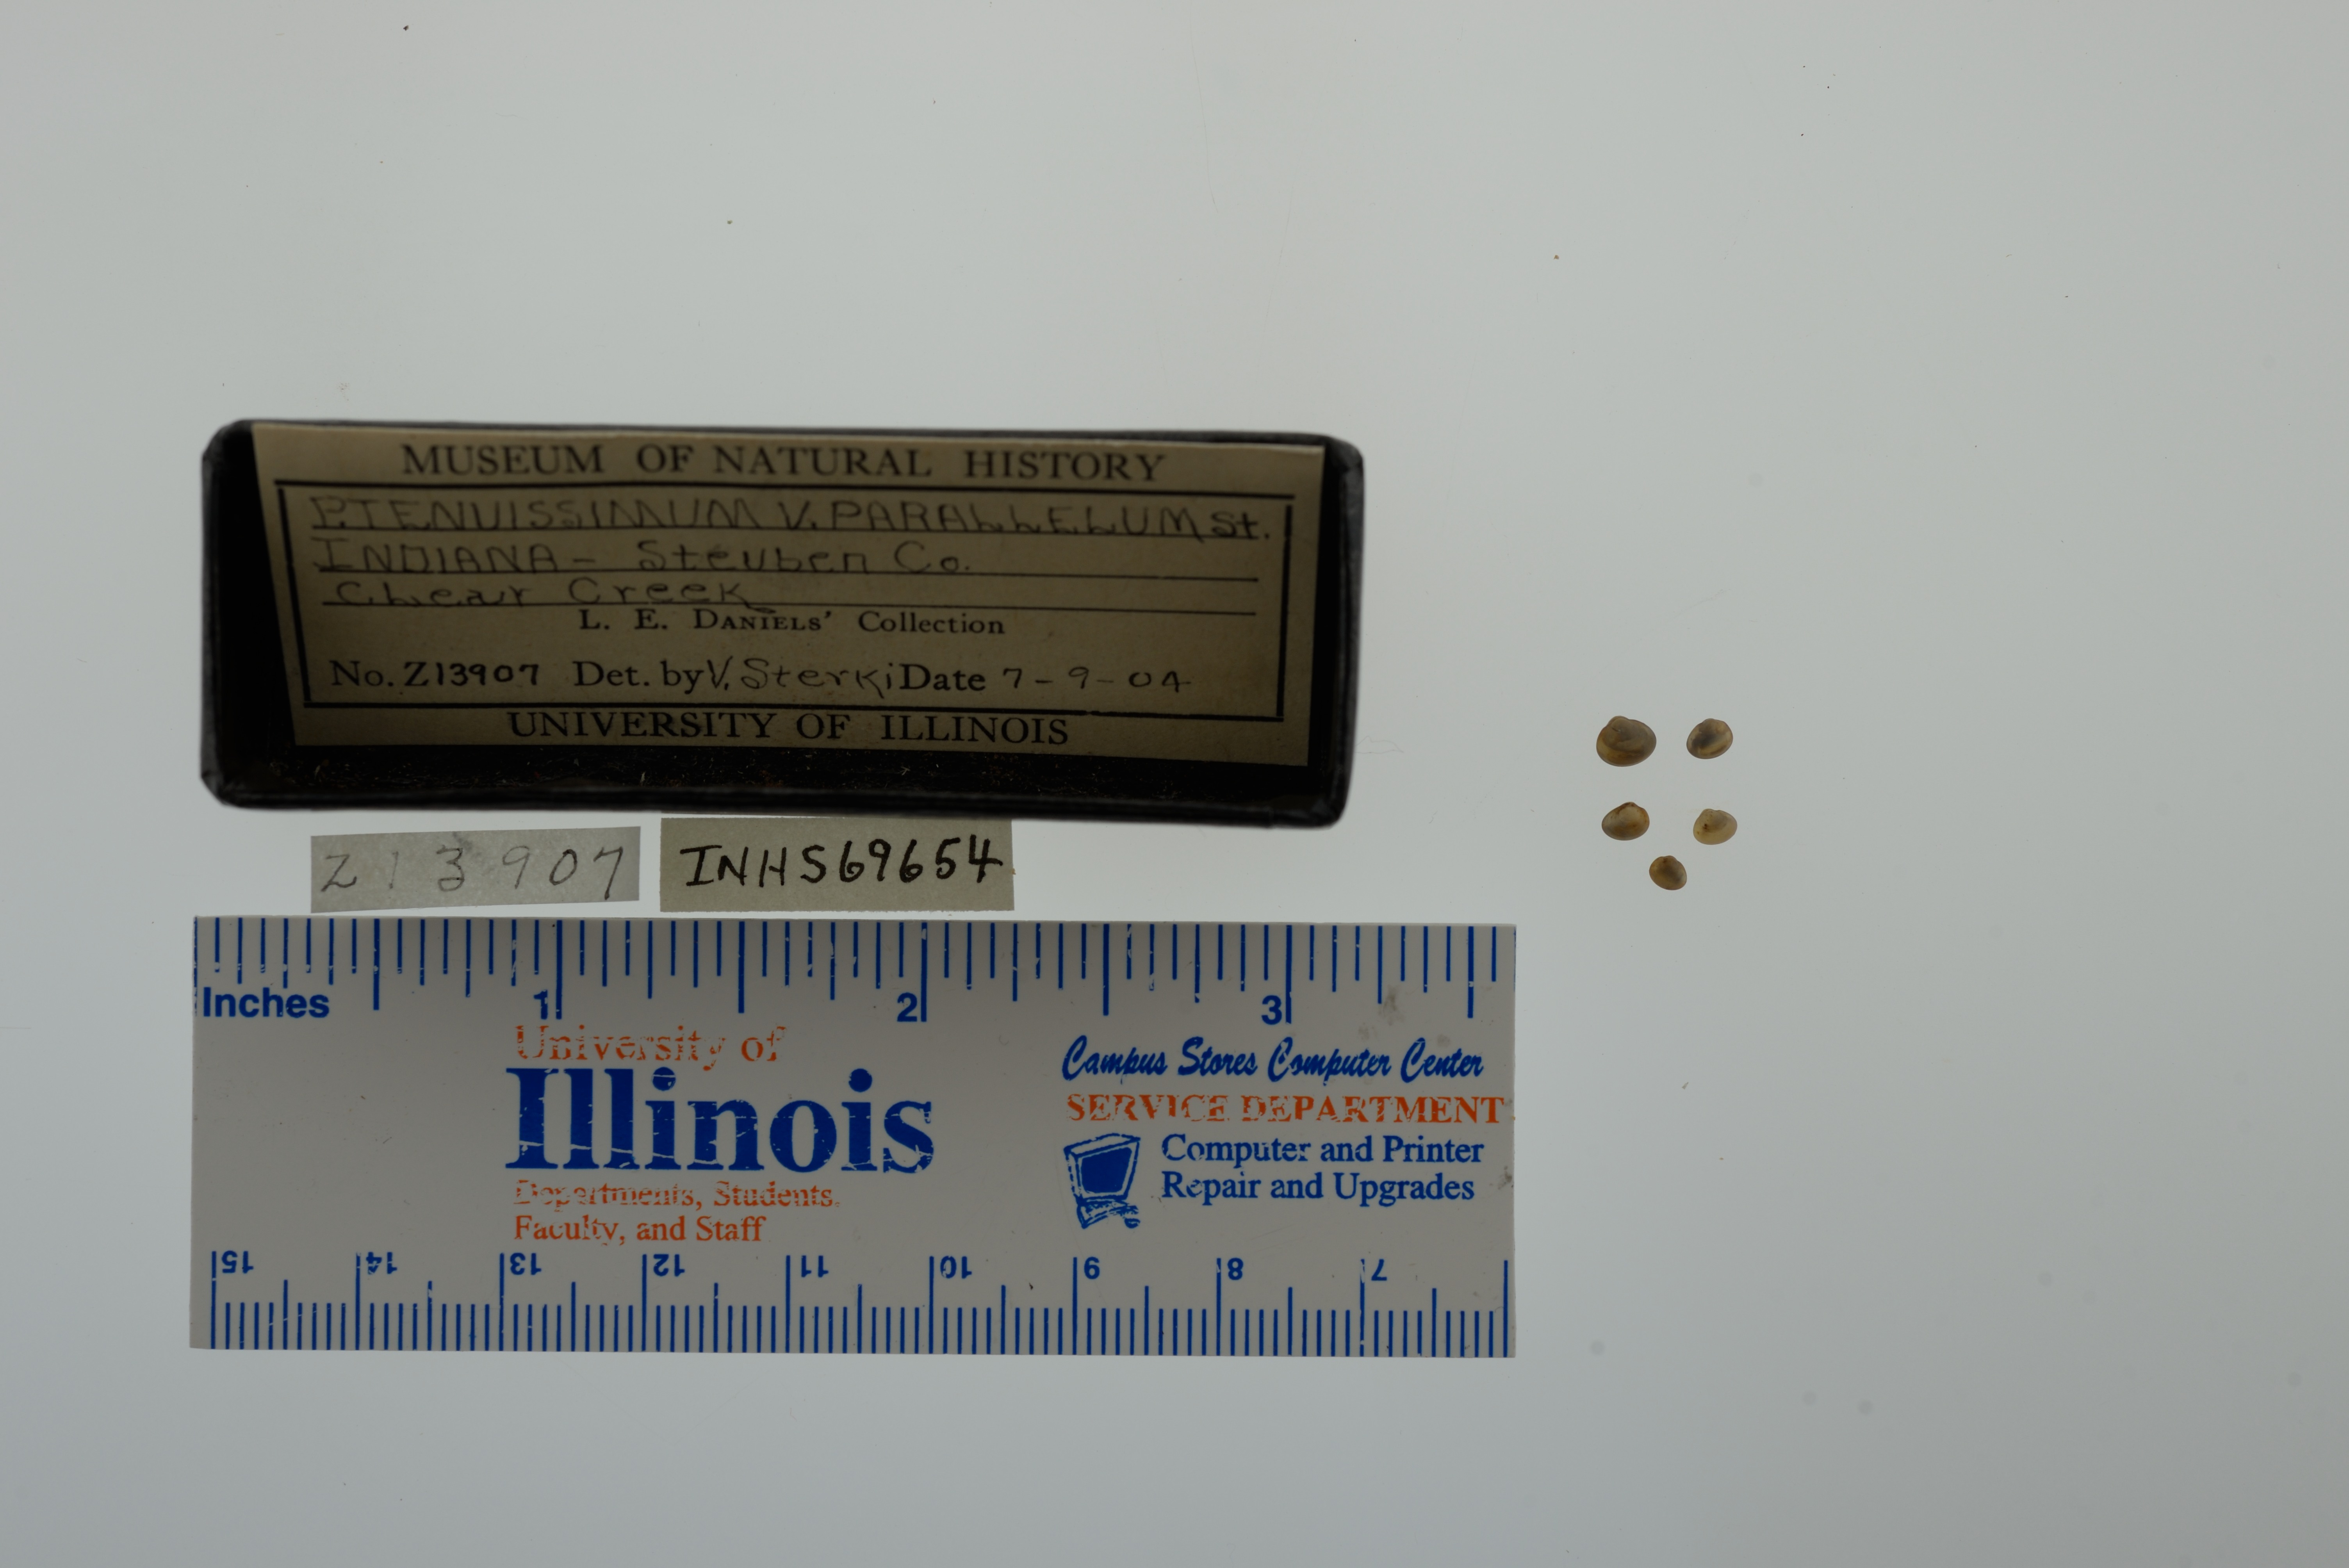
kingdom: Animalia
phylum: Mollusca
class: Bivalvia
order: Sphaeriida
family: Sphaeriidae
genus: Euglesa
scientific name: Euglesa nitida
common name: Shining peaclam
